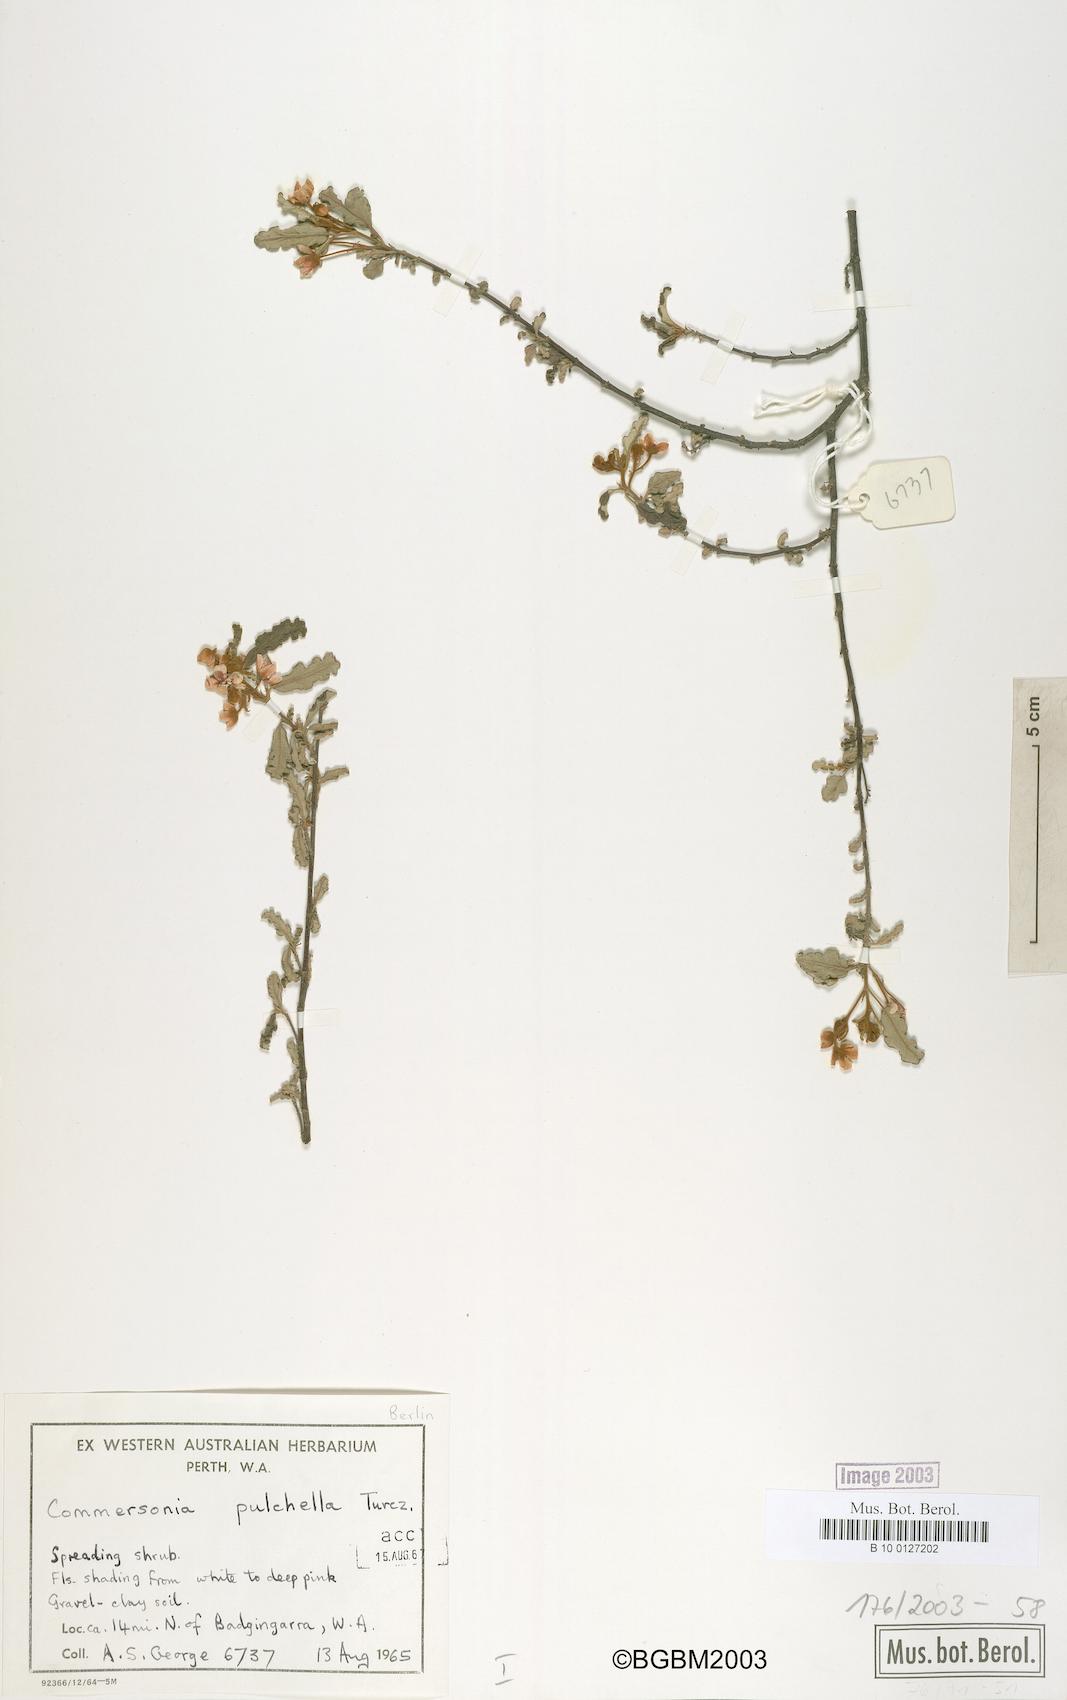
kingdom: Plantae
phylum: Tracheophyta
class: Magnoliopsida
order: Malvales
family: Malvaceae
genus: Androcalva
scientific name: Androcalva pulchella
